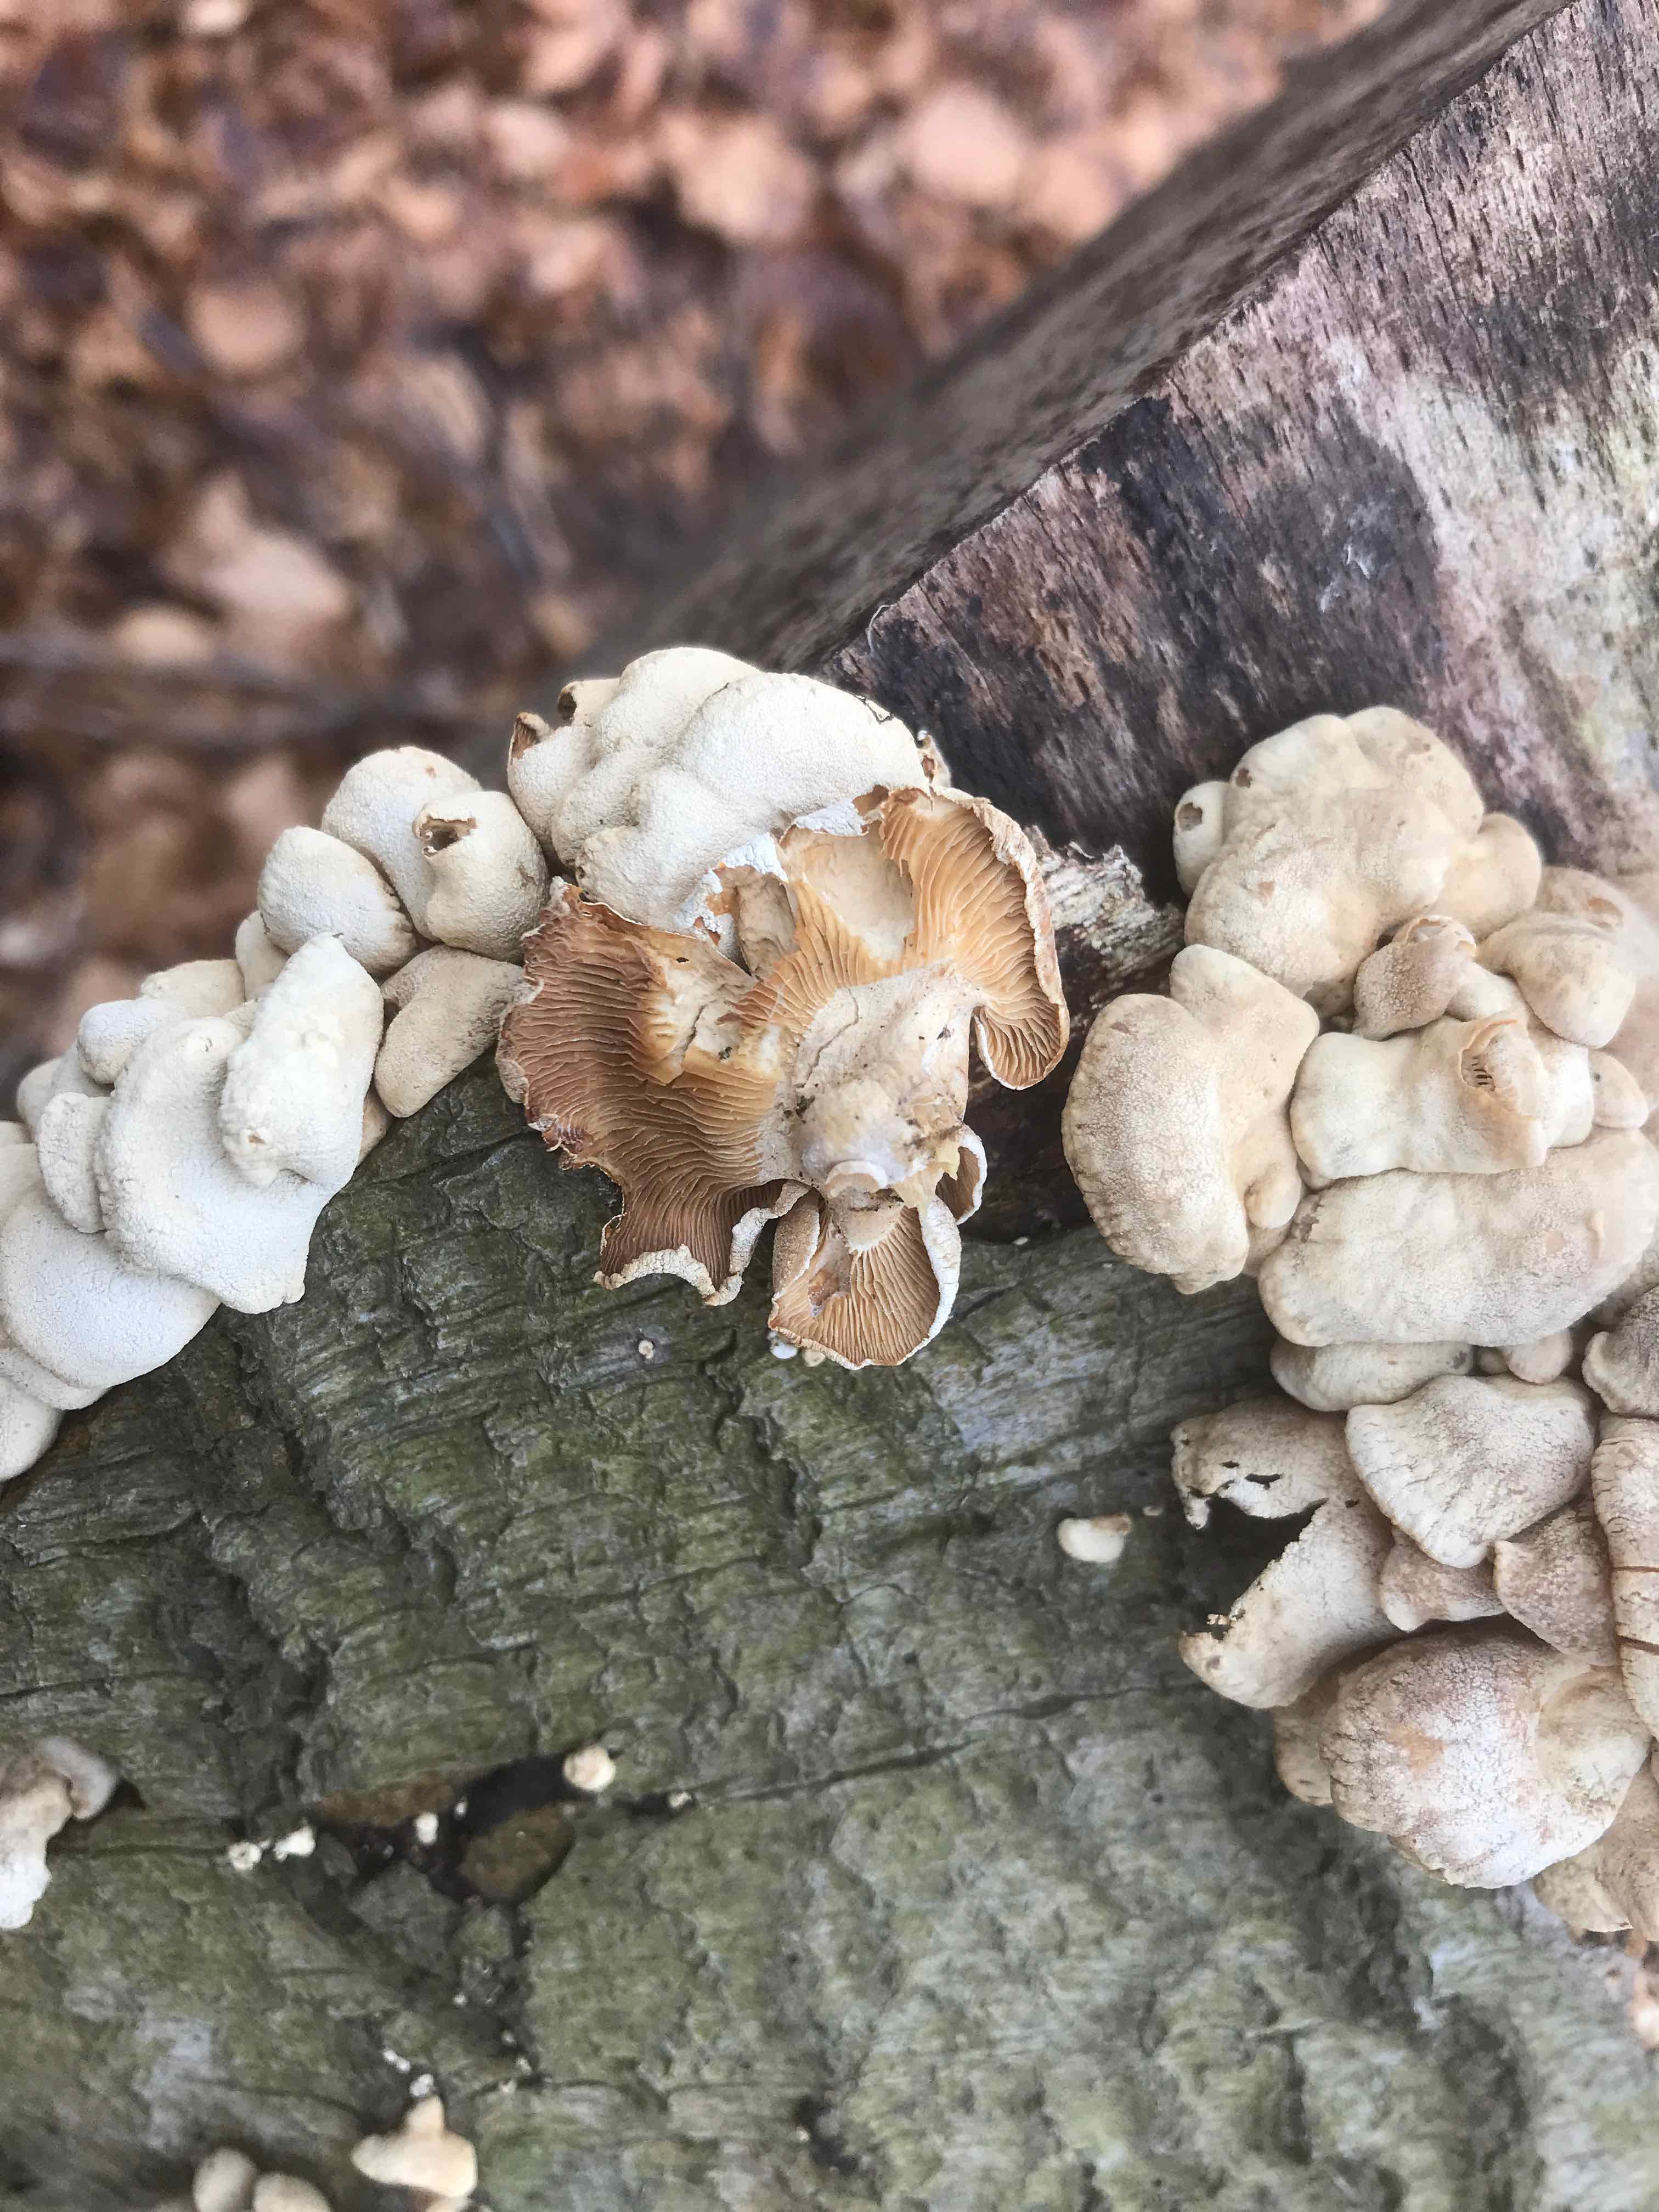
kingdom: Fungi
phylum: Basidiomycota
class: Agaricomycetes
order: Agaricales
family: Mycenaceae
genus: Panellus
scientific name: Panellus stipticus
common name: kliddet epaulethat
